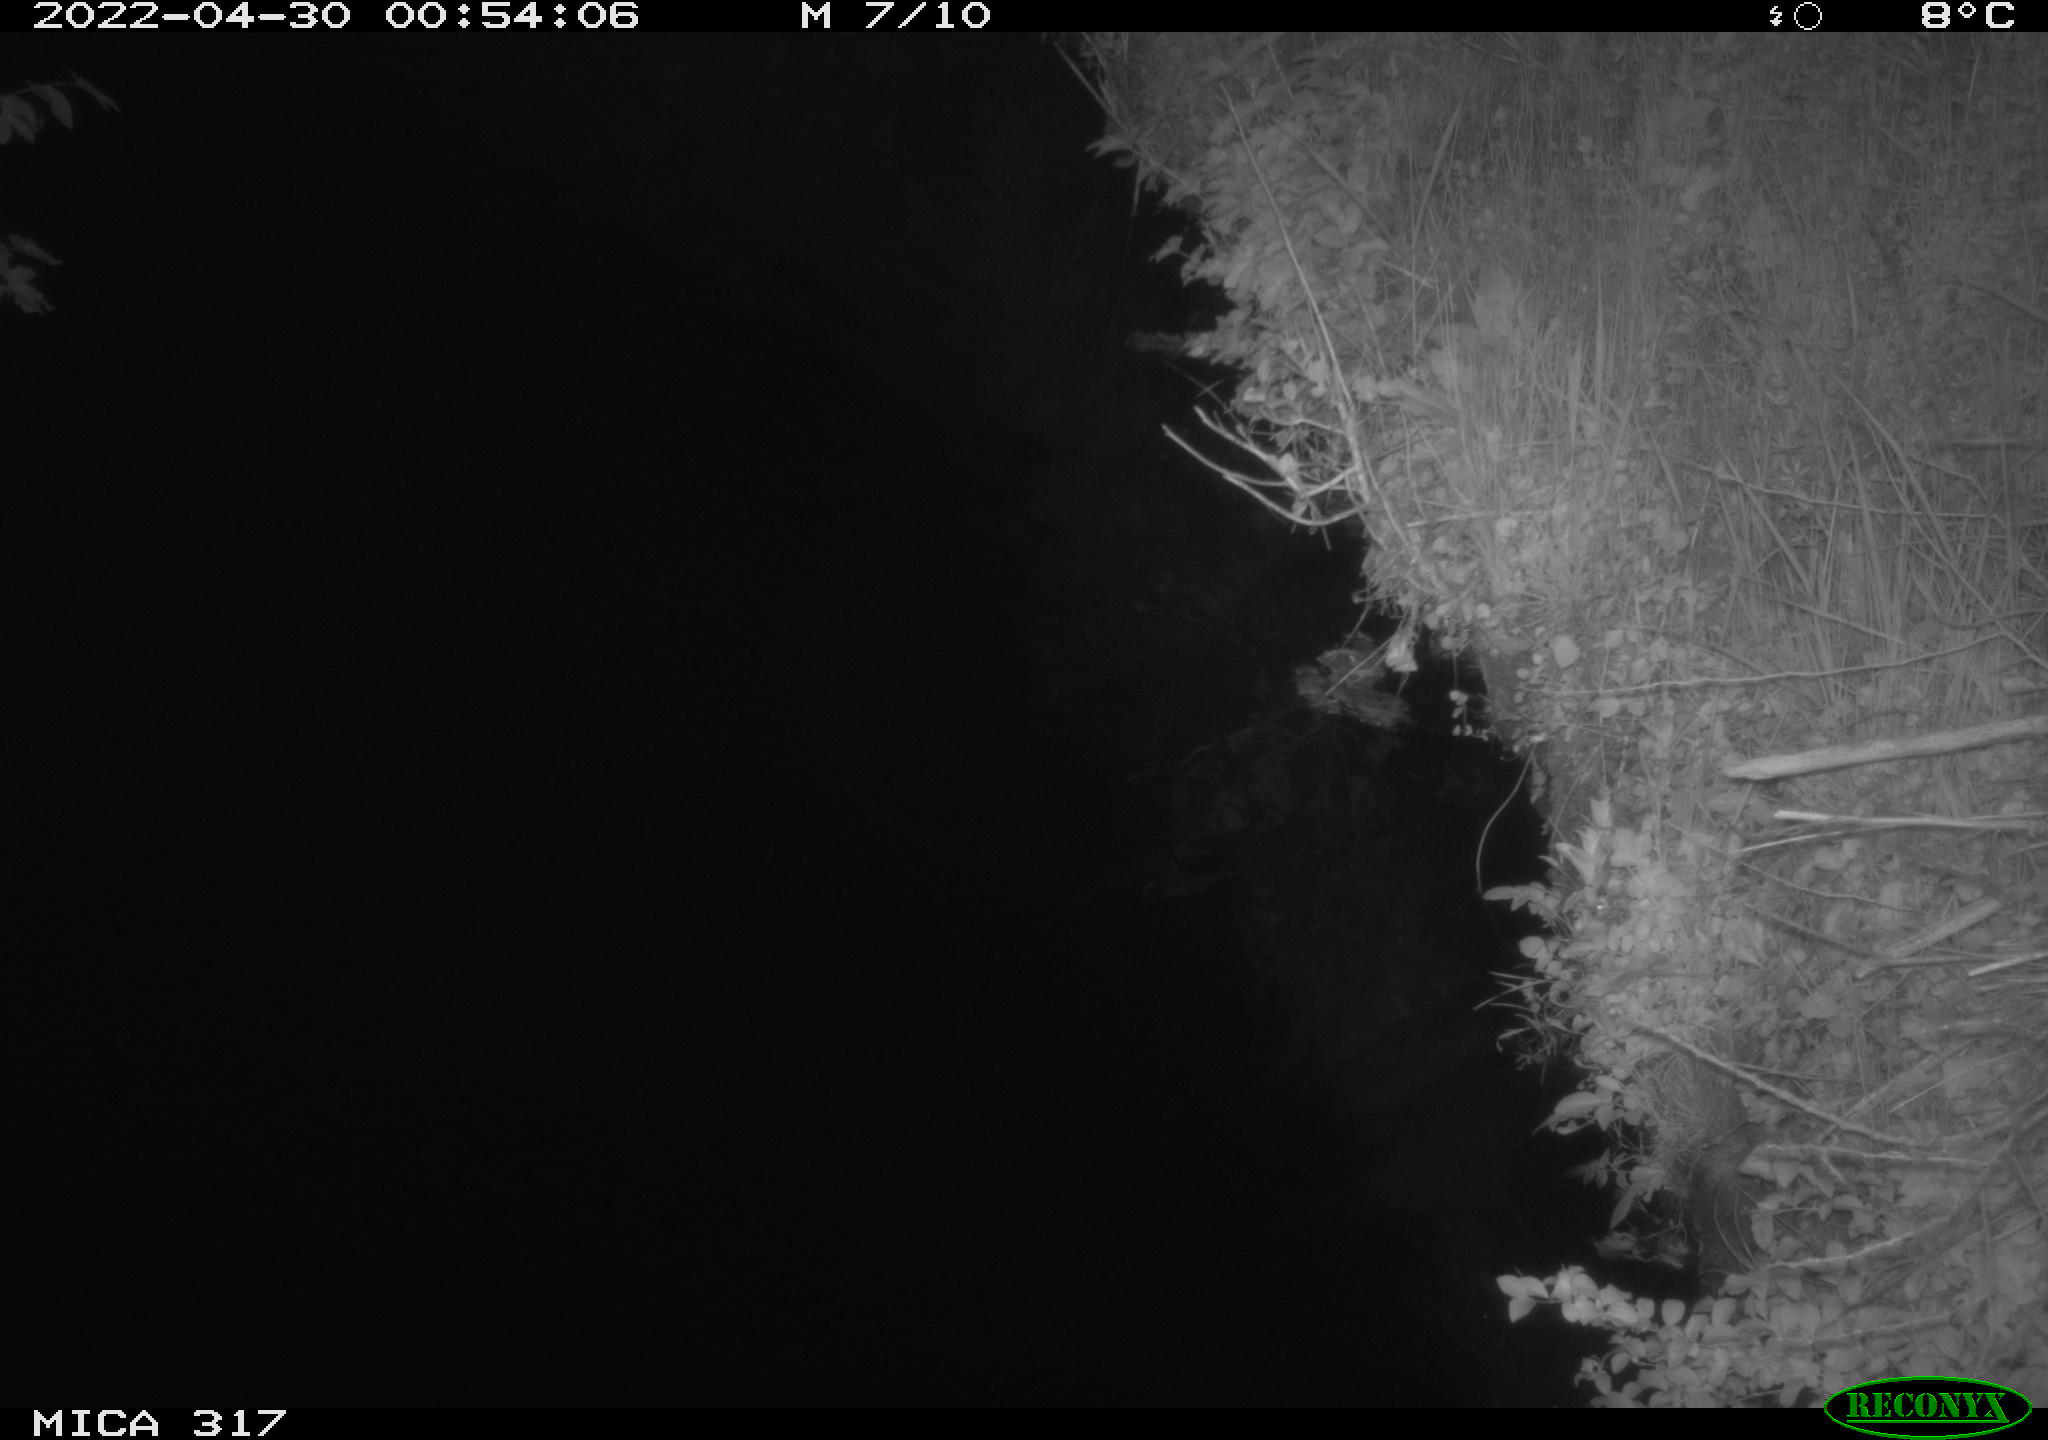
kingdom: Animalia
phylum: Chordata
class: Aves
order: Anseriformes
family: Anatidae
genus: Anas
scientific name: Anas platyrhynchos
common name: Mallard
